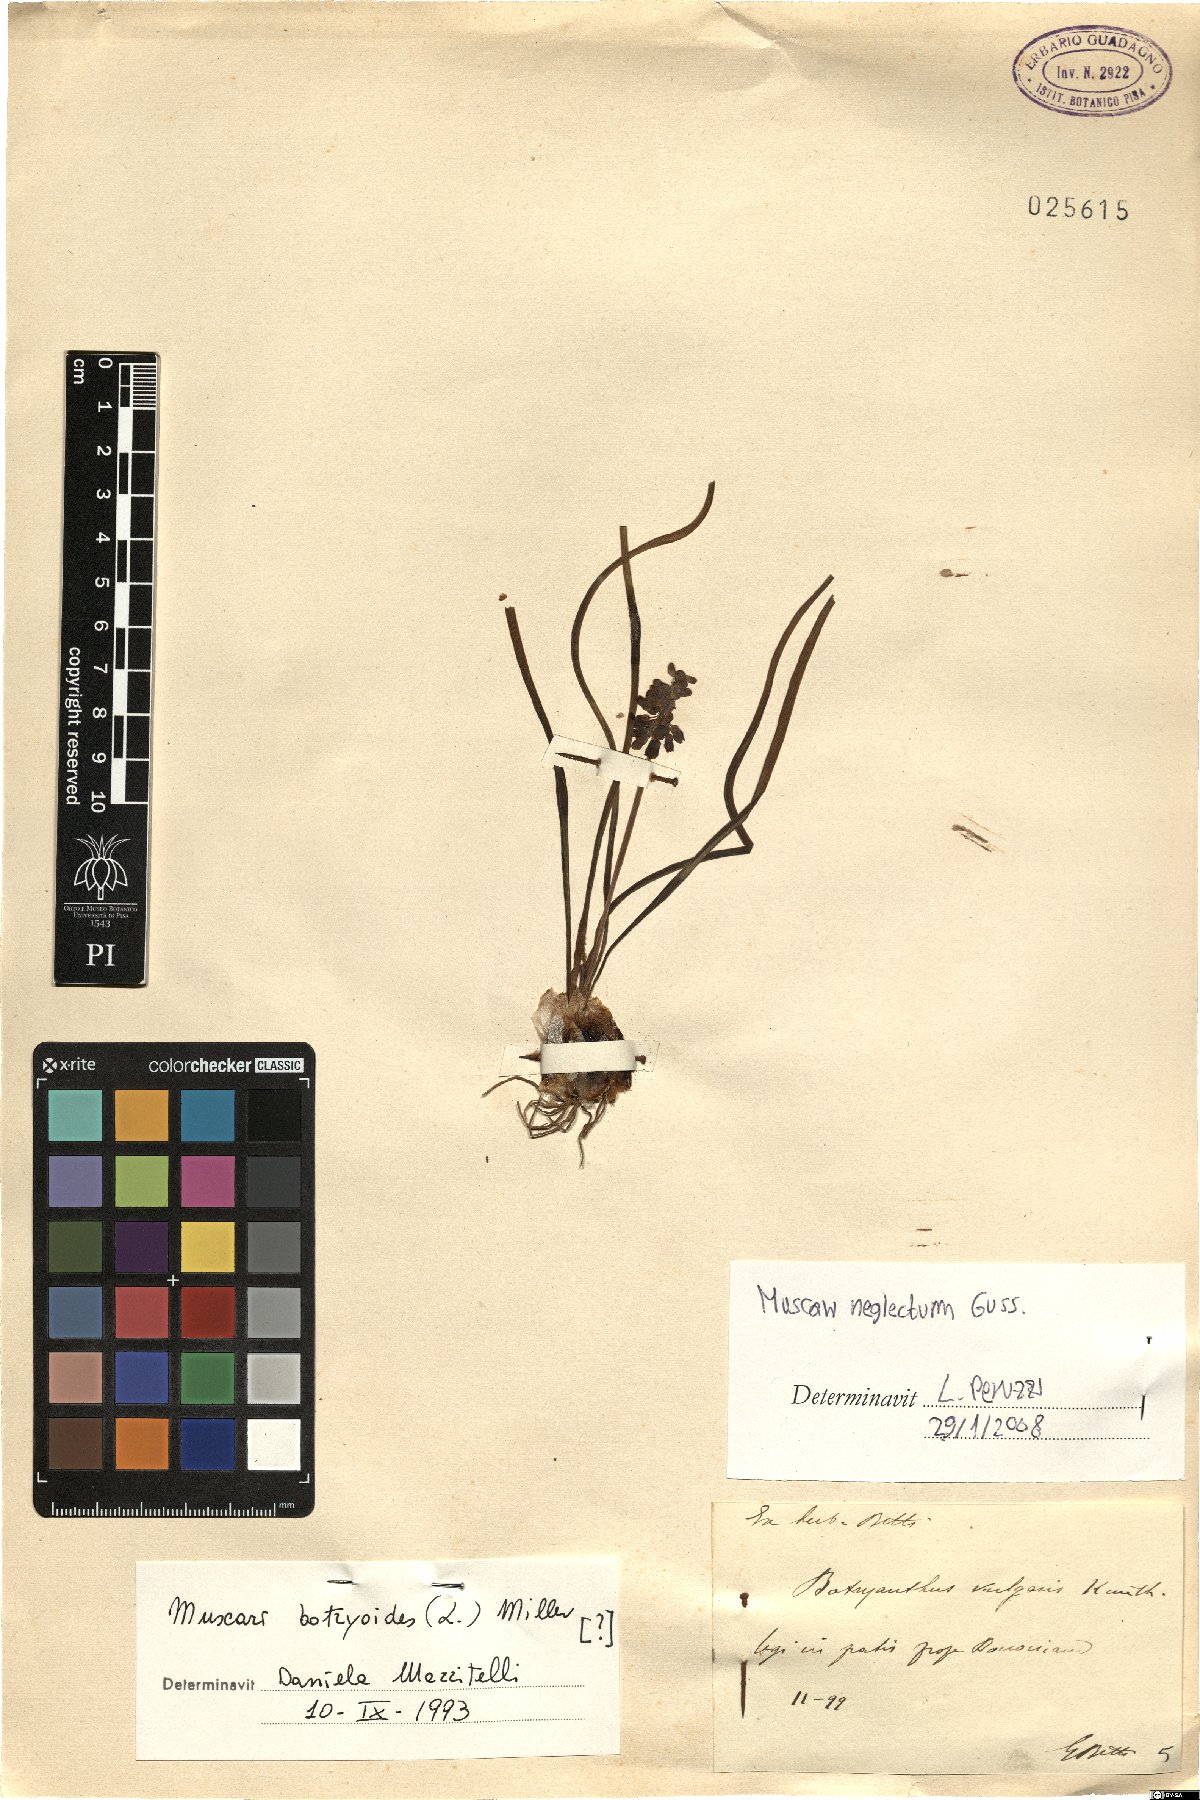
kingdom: Plantae
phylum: Tracheophyta
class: Liliopsida
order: Asparagales
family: Asparagaceae
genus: Muscari
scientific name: Muscari neglectum
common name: Grape-hyacinth
